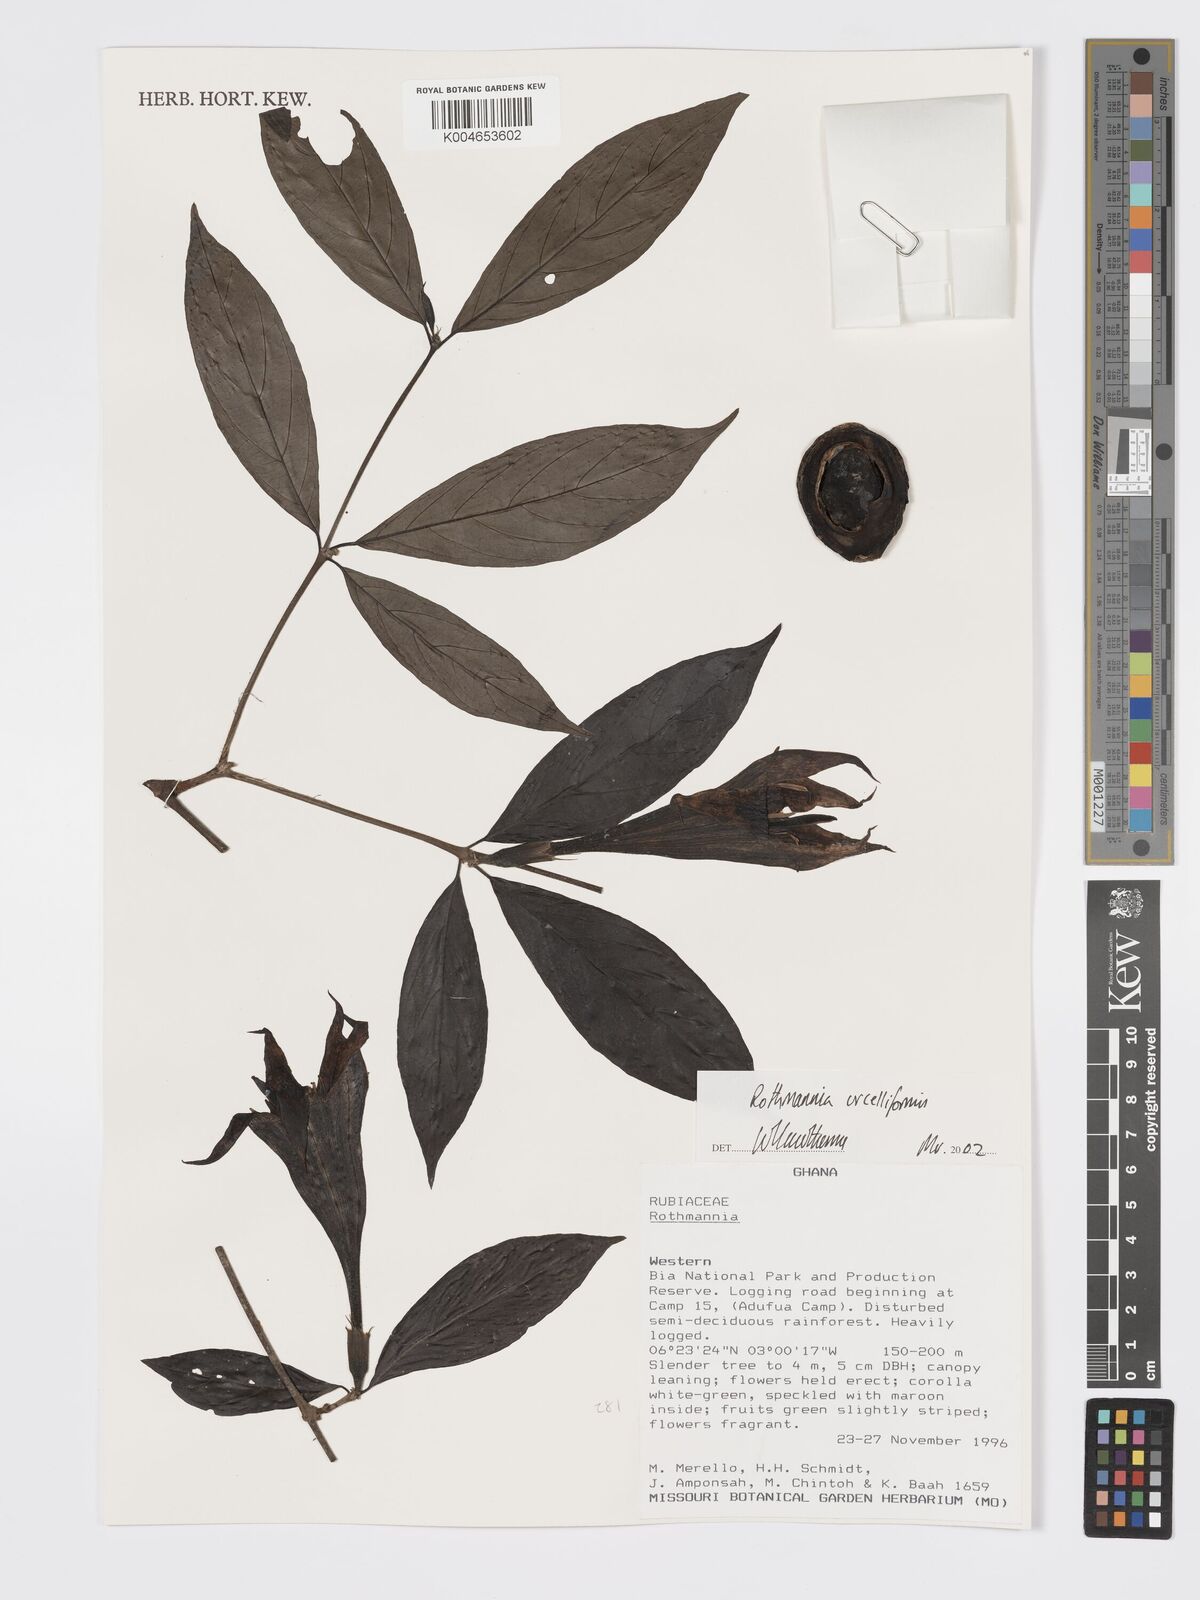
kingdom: Plantae
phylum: Tracheophyta
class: Magnoliopsida
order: Gentianales
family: Rubiaceae
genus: Rothmannia
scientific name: Rothmannia urcelliformis
